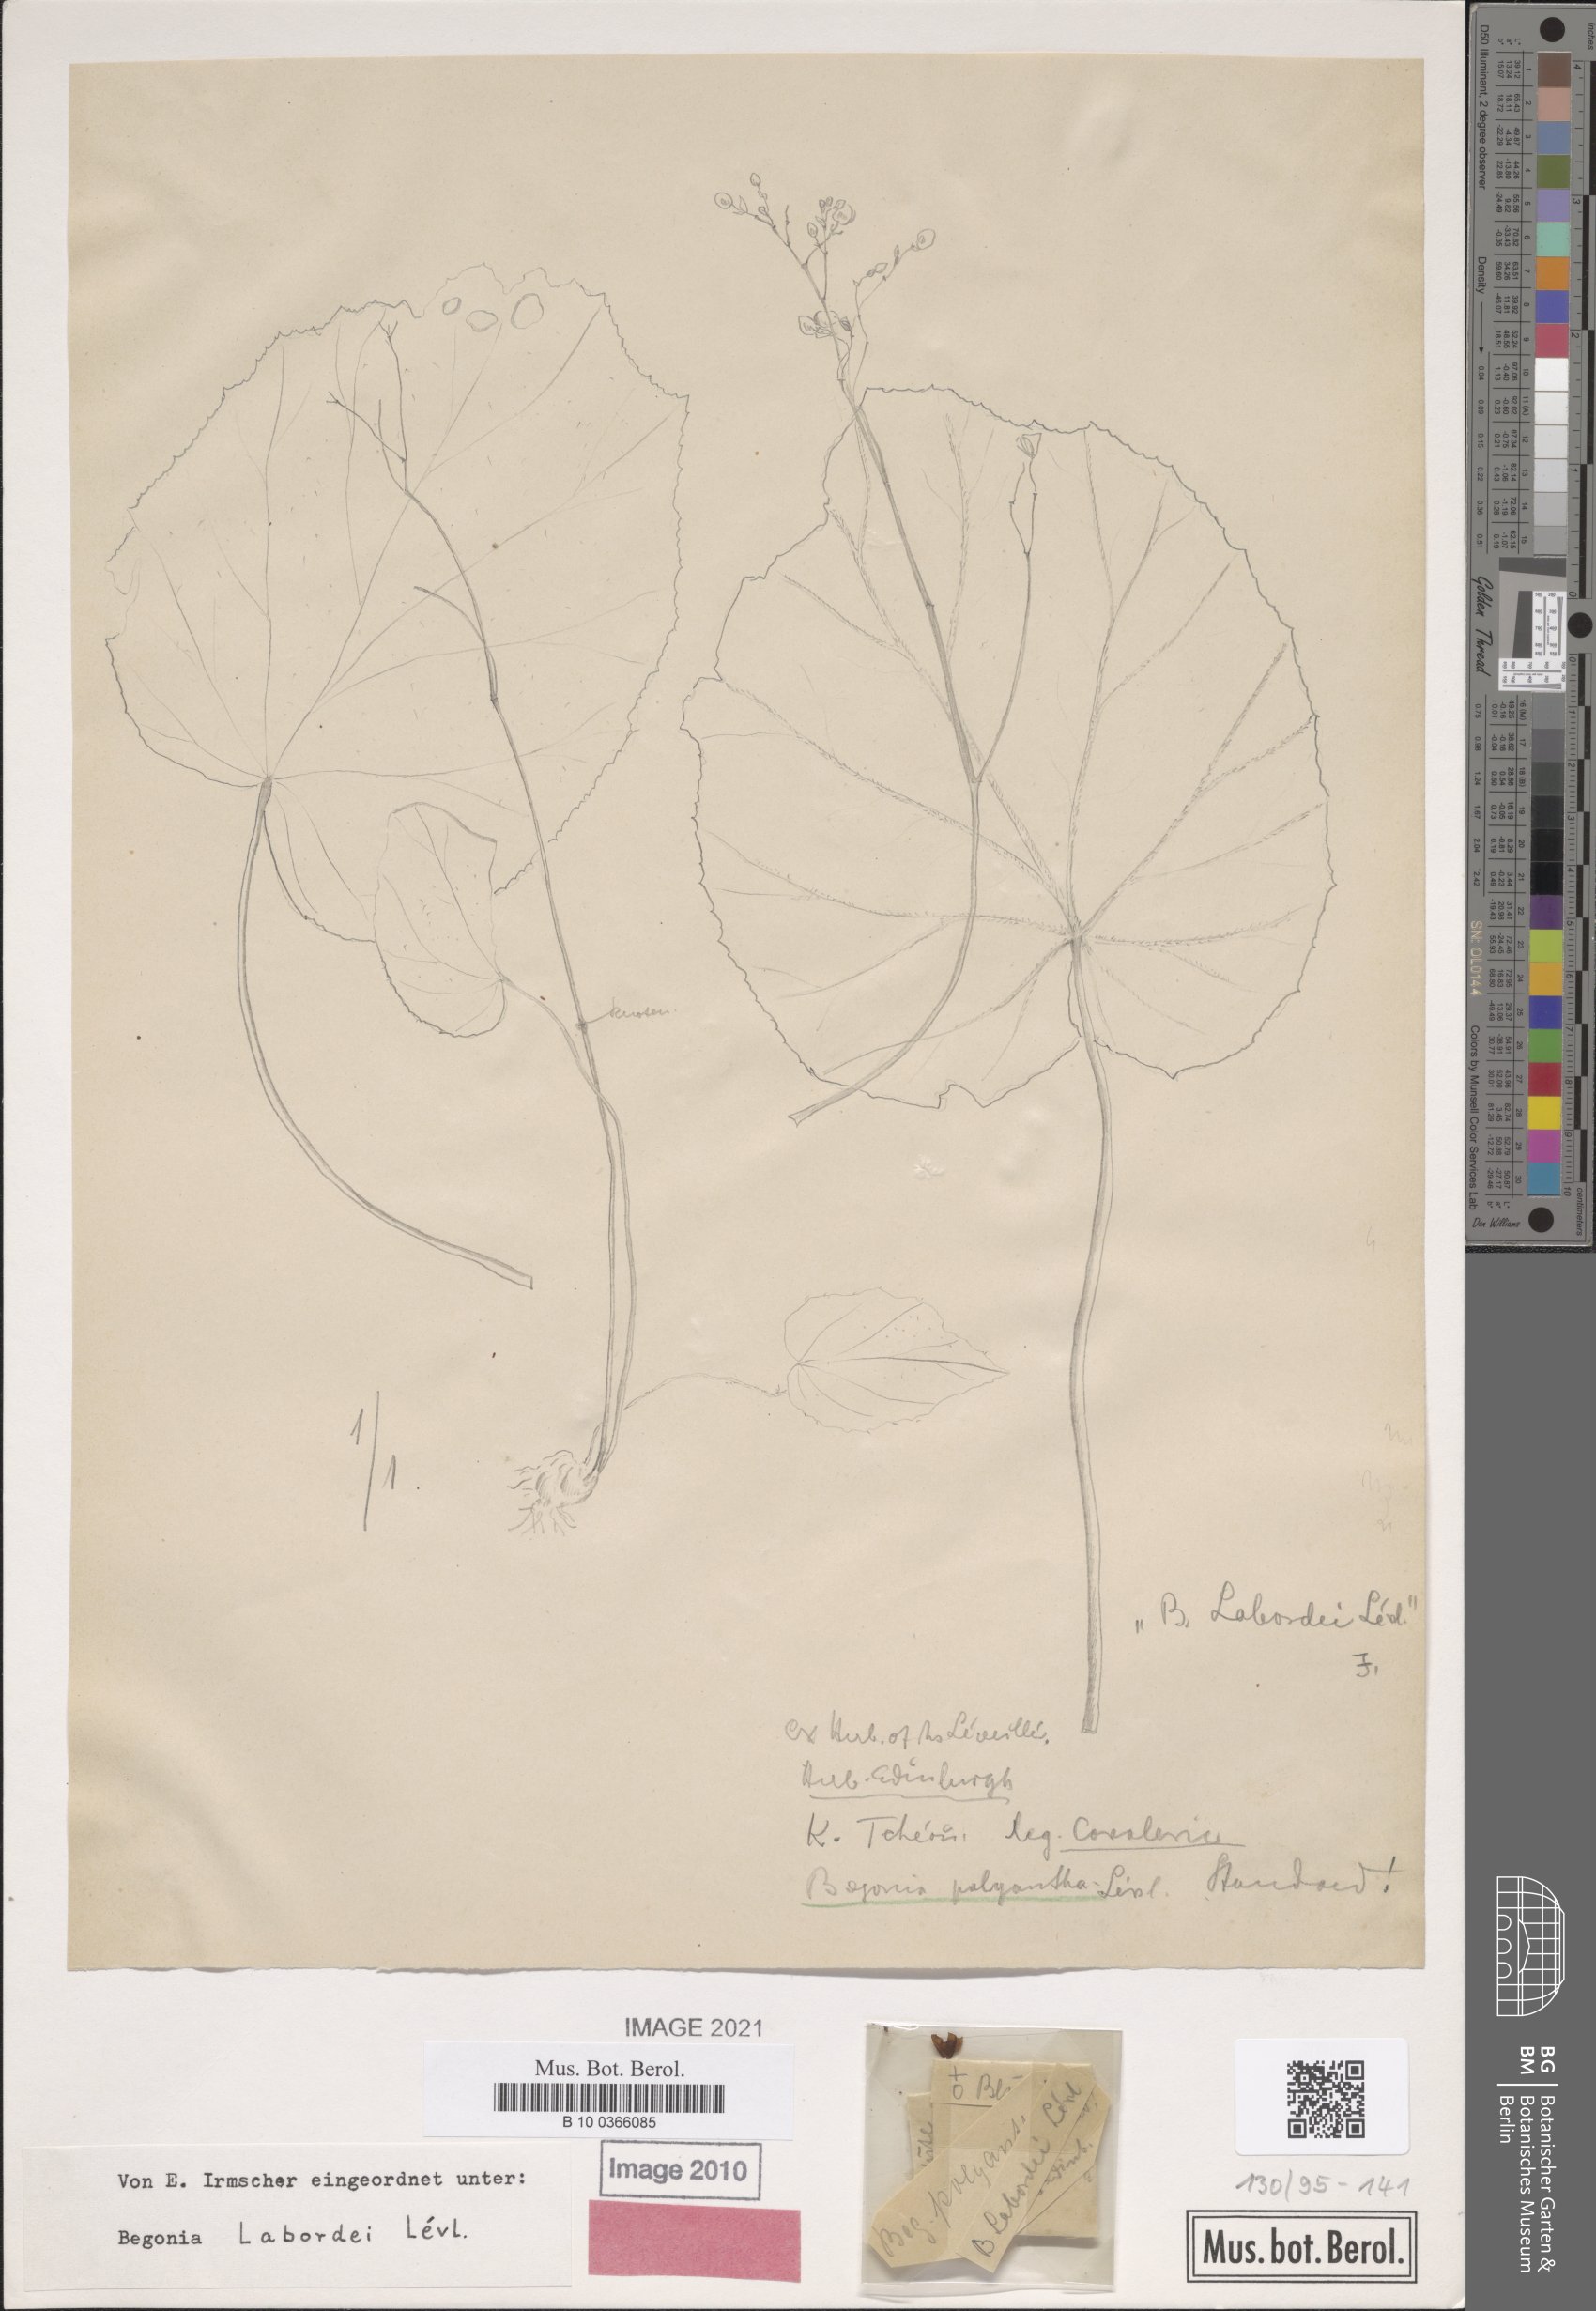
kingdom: Plantae
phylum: Tracheophyta
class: Magnoliopsida
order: Cucurbitales
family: Begoniaceae
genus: Begonia
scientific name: Begonia labordei
